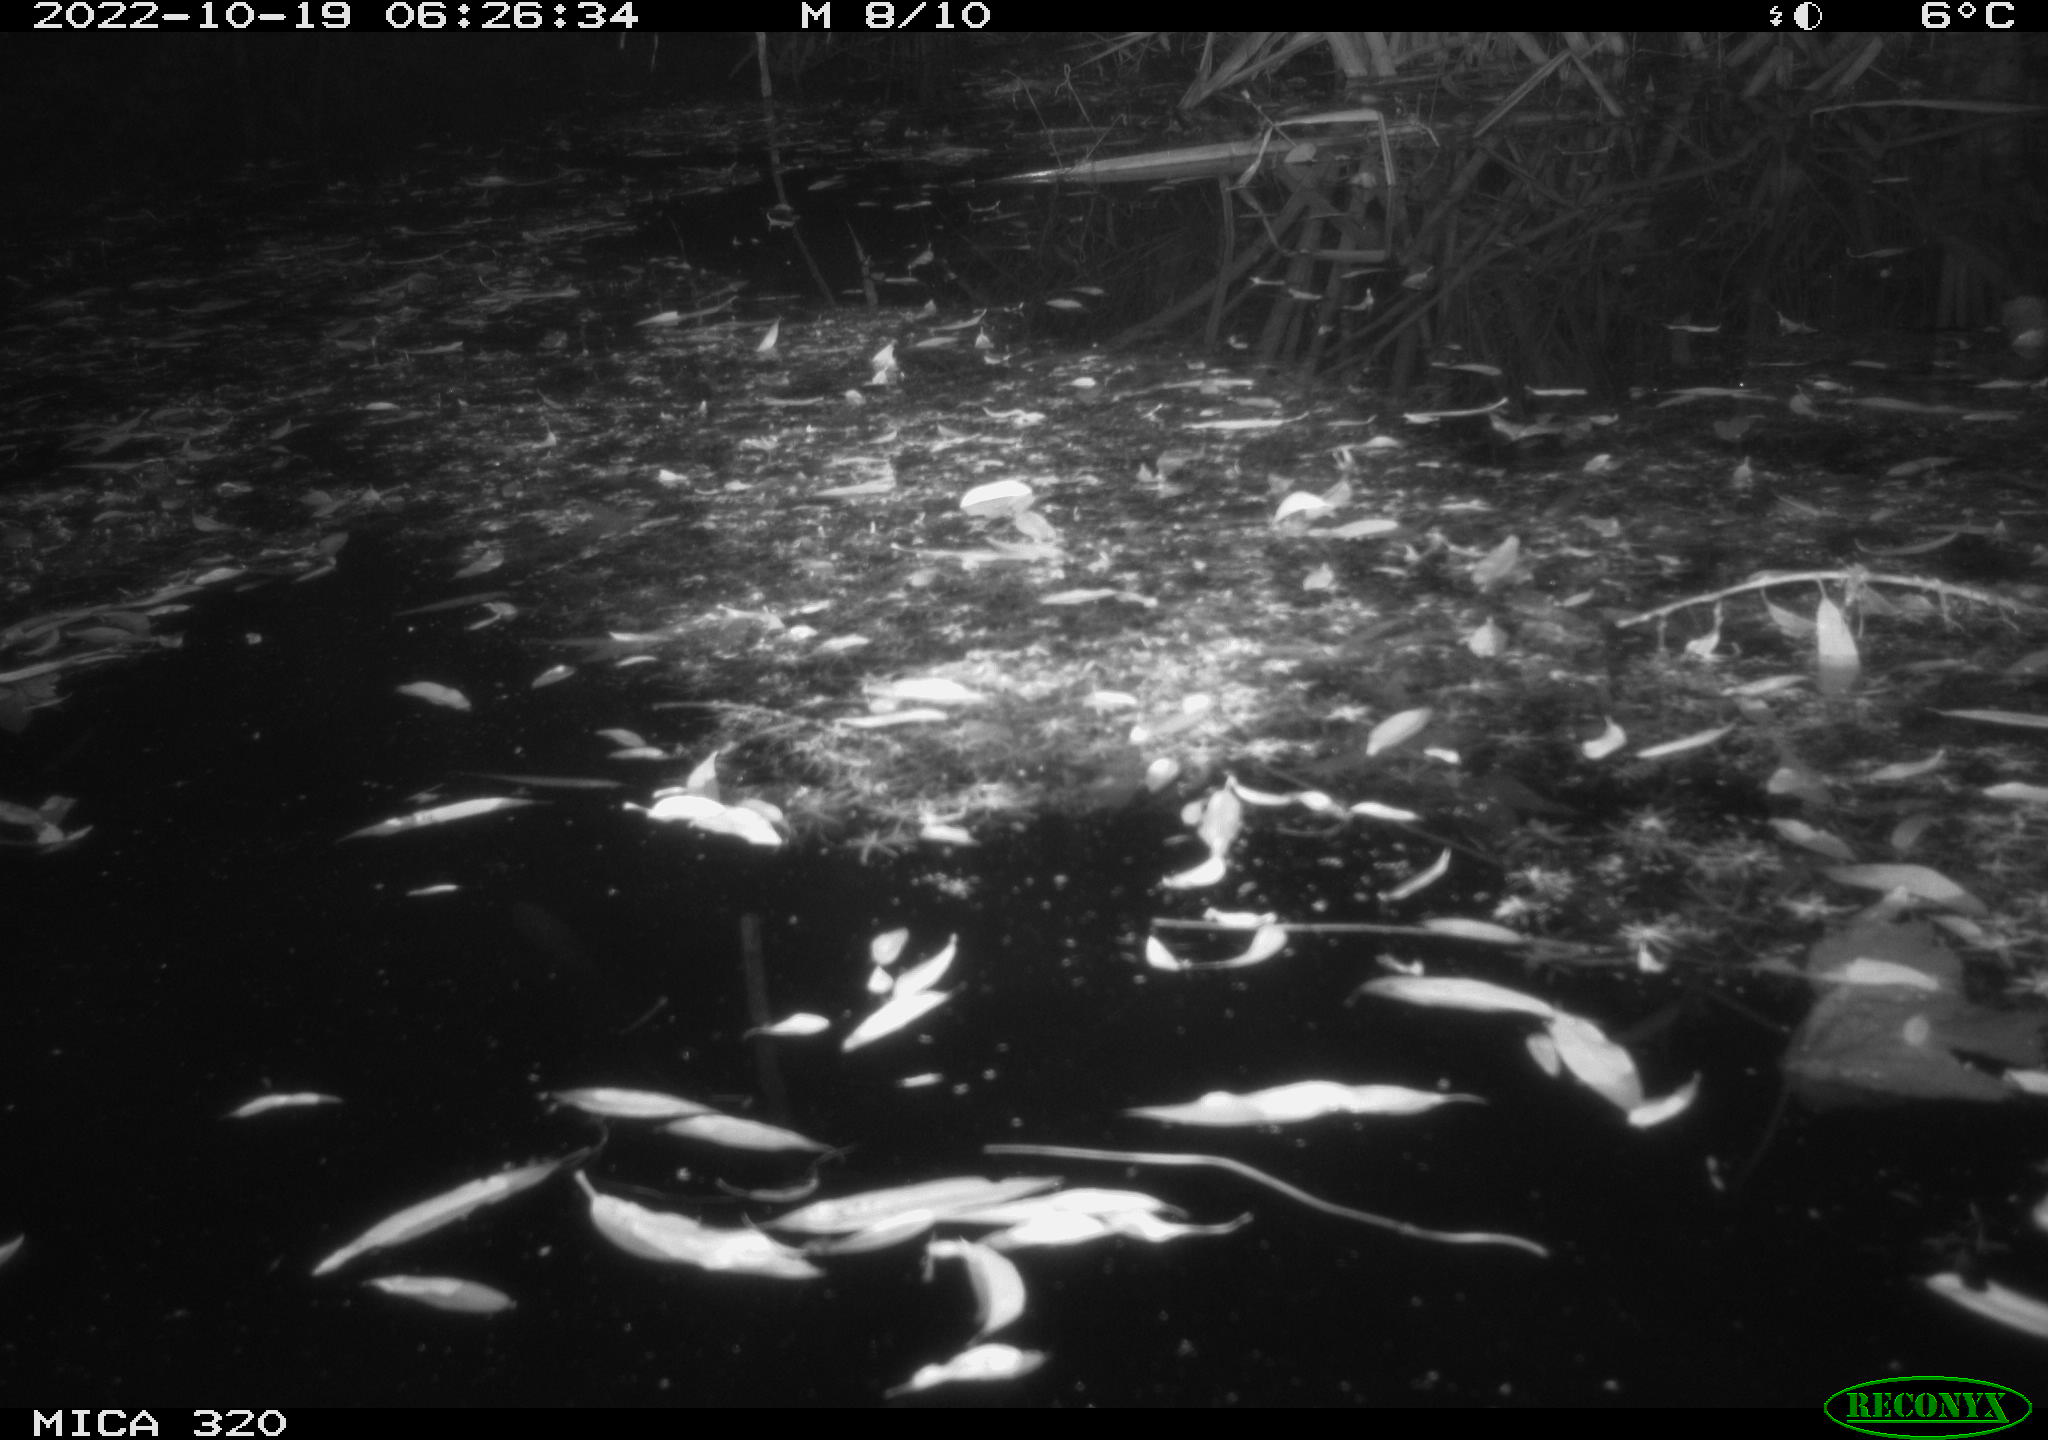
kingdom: Animalia
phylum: Chordata
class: Mammalia
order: Rodentia
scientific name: Rodentia
